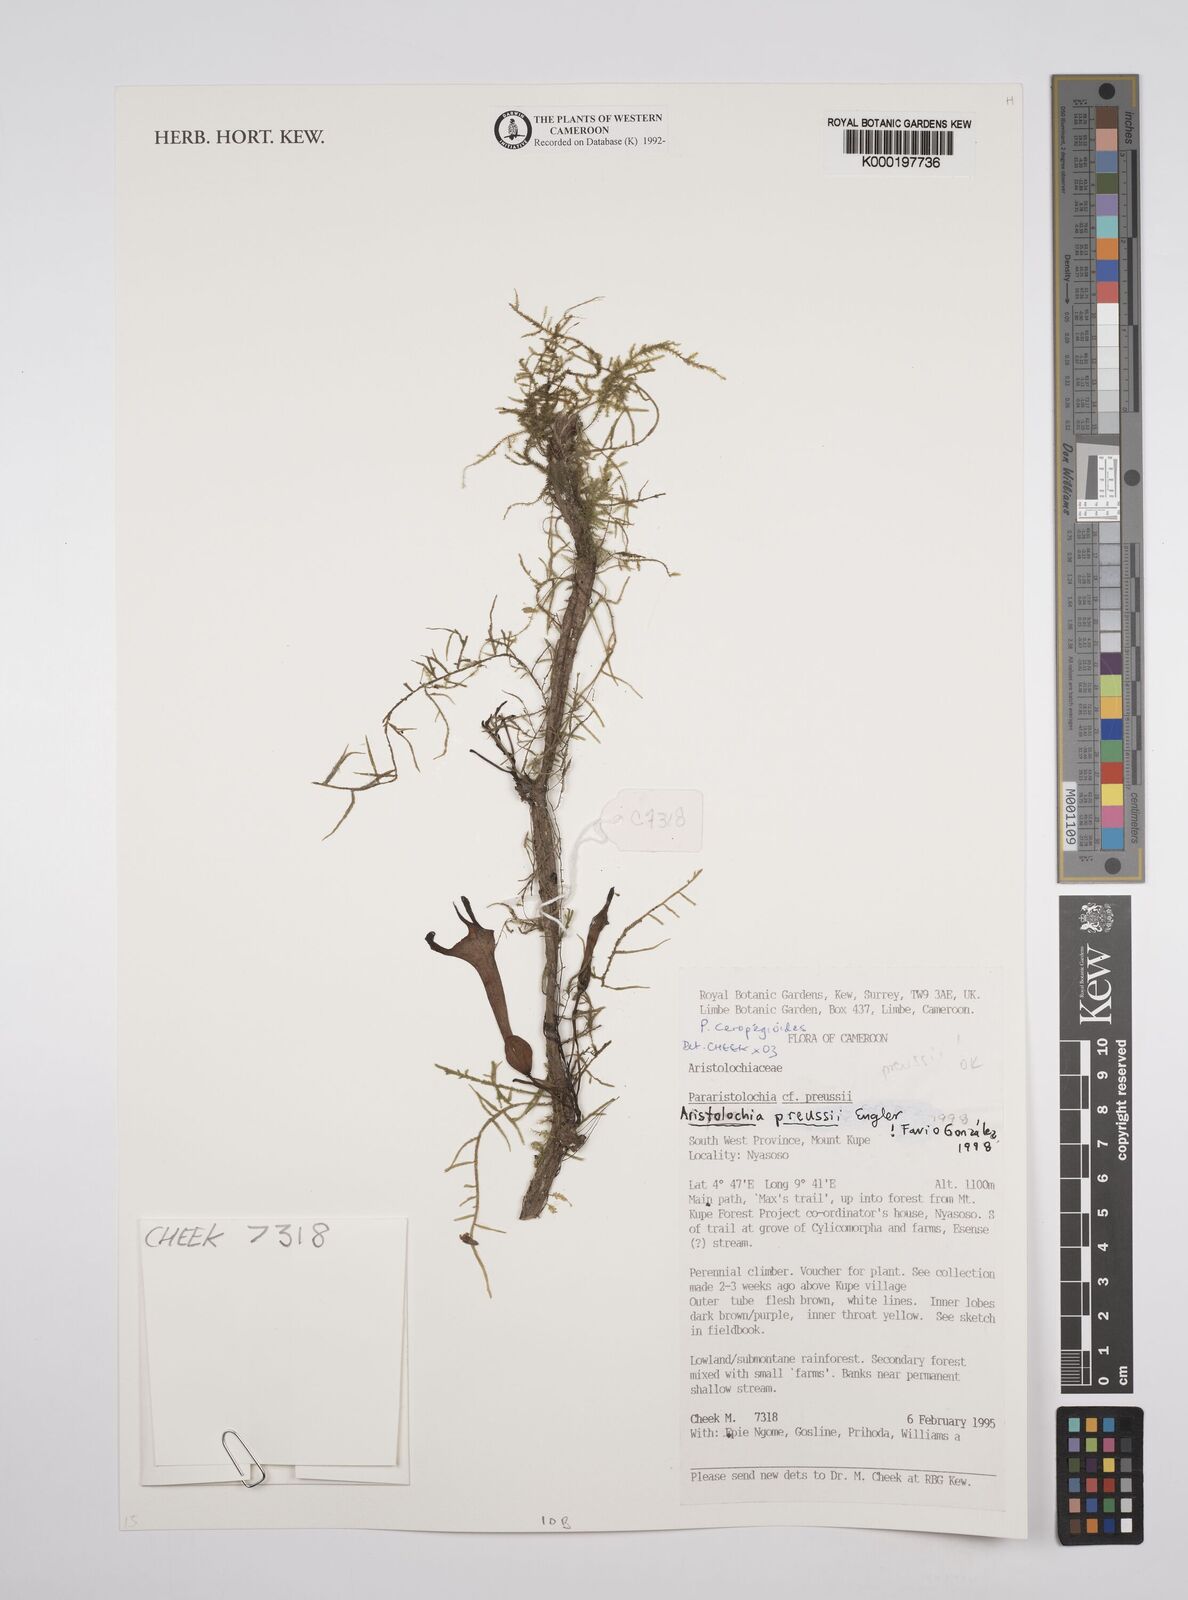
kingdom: Plantae
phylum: Tracheophyta
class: Magnoliopsida
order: Piperales
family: Aristolochiaceae
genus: Aristolochia
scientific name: Aristolochia ceropegioides
